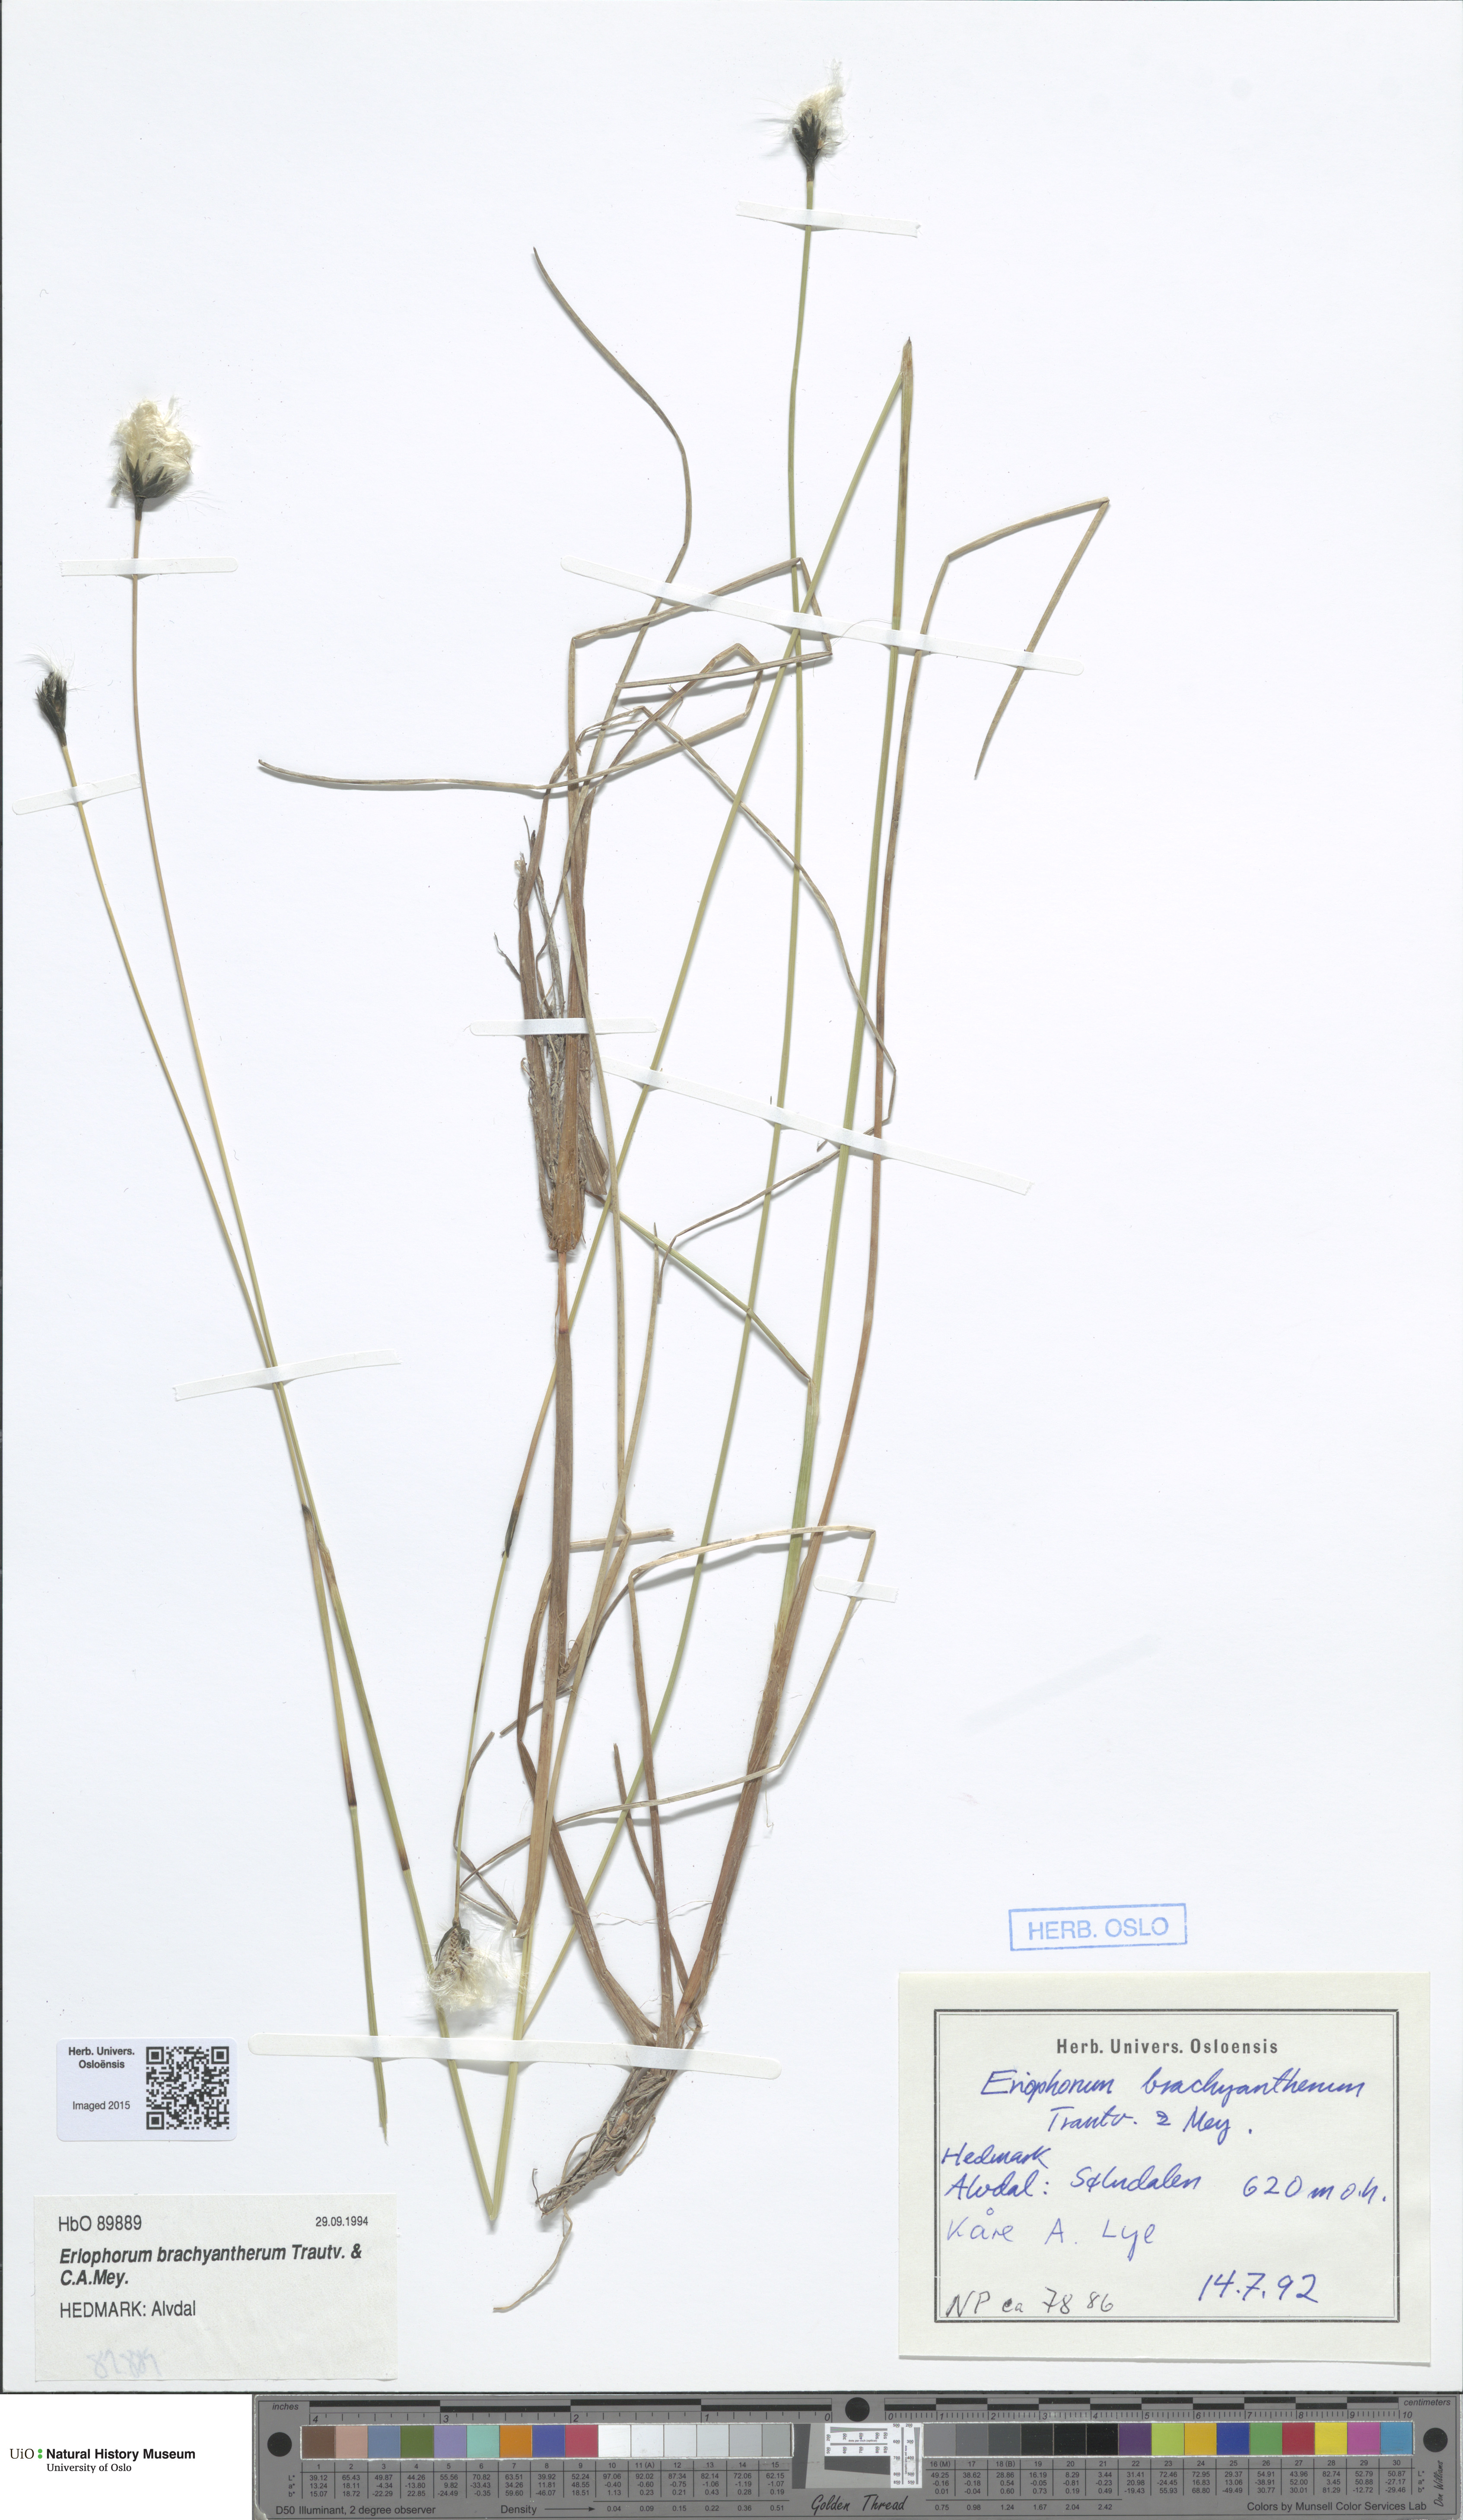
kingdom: Plantae
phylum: Tracheophyta
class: Liliopsida
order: Poales
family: Cyperaceae
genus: Eriophorum
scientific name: Eriophorum brachyantherum
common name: Closed-sheathed cottongrass
